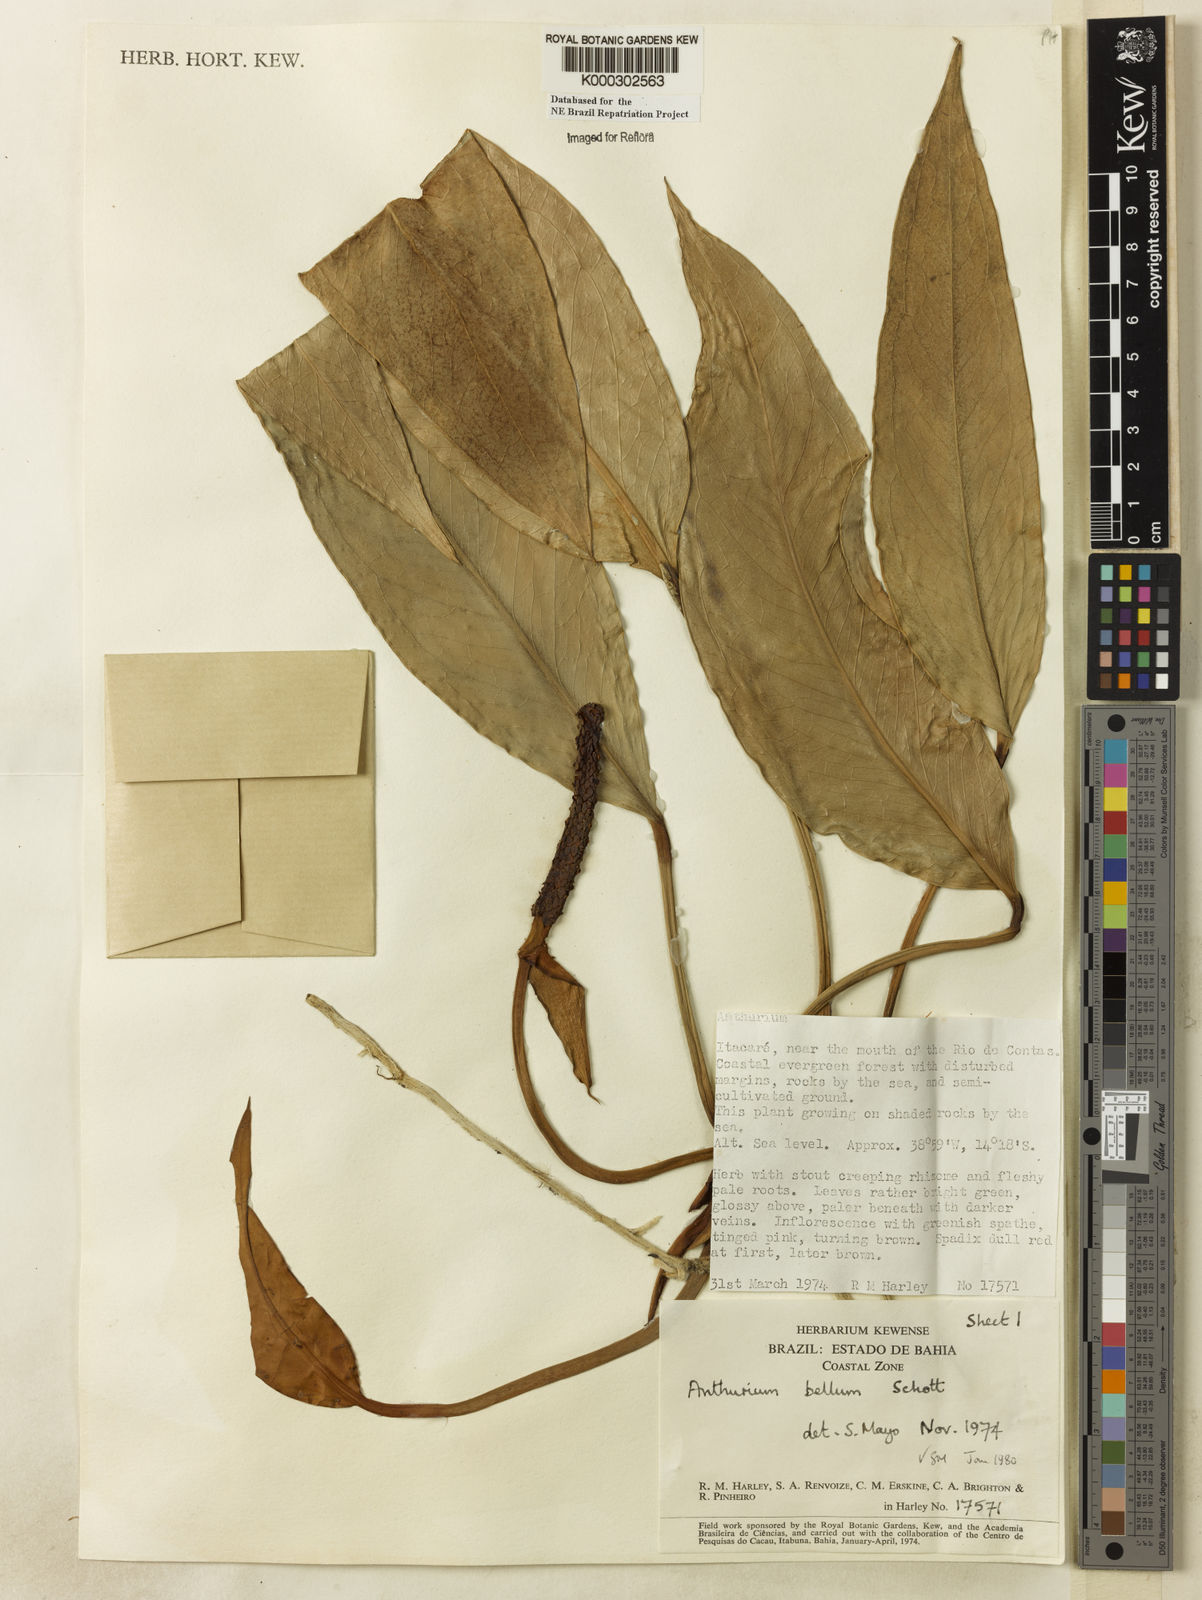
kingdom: Plantae
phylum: Tracheophyta
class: Liliopsida
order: Alismatales
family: Araceae
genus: Anthurium
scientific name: Anthurium bellum
